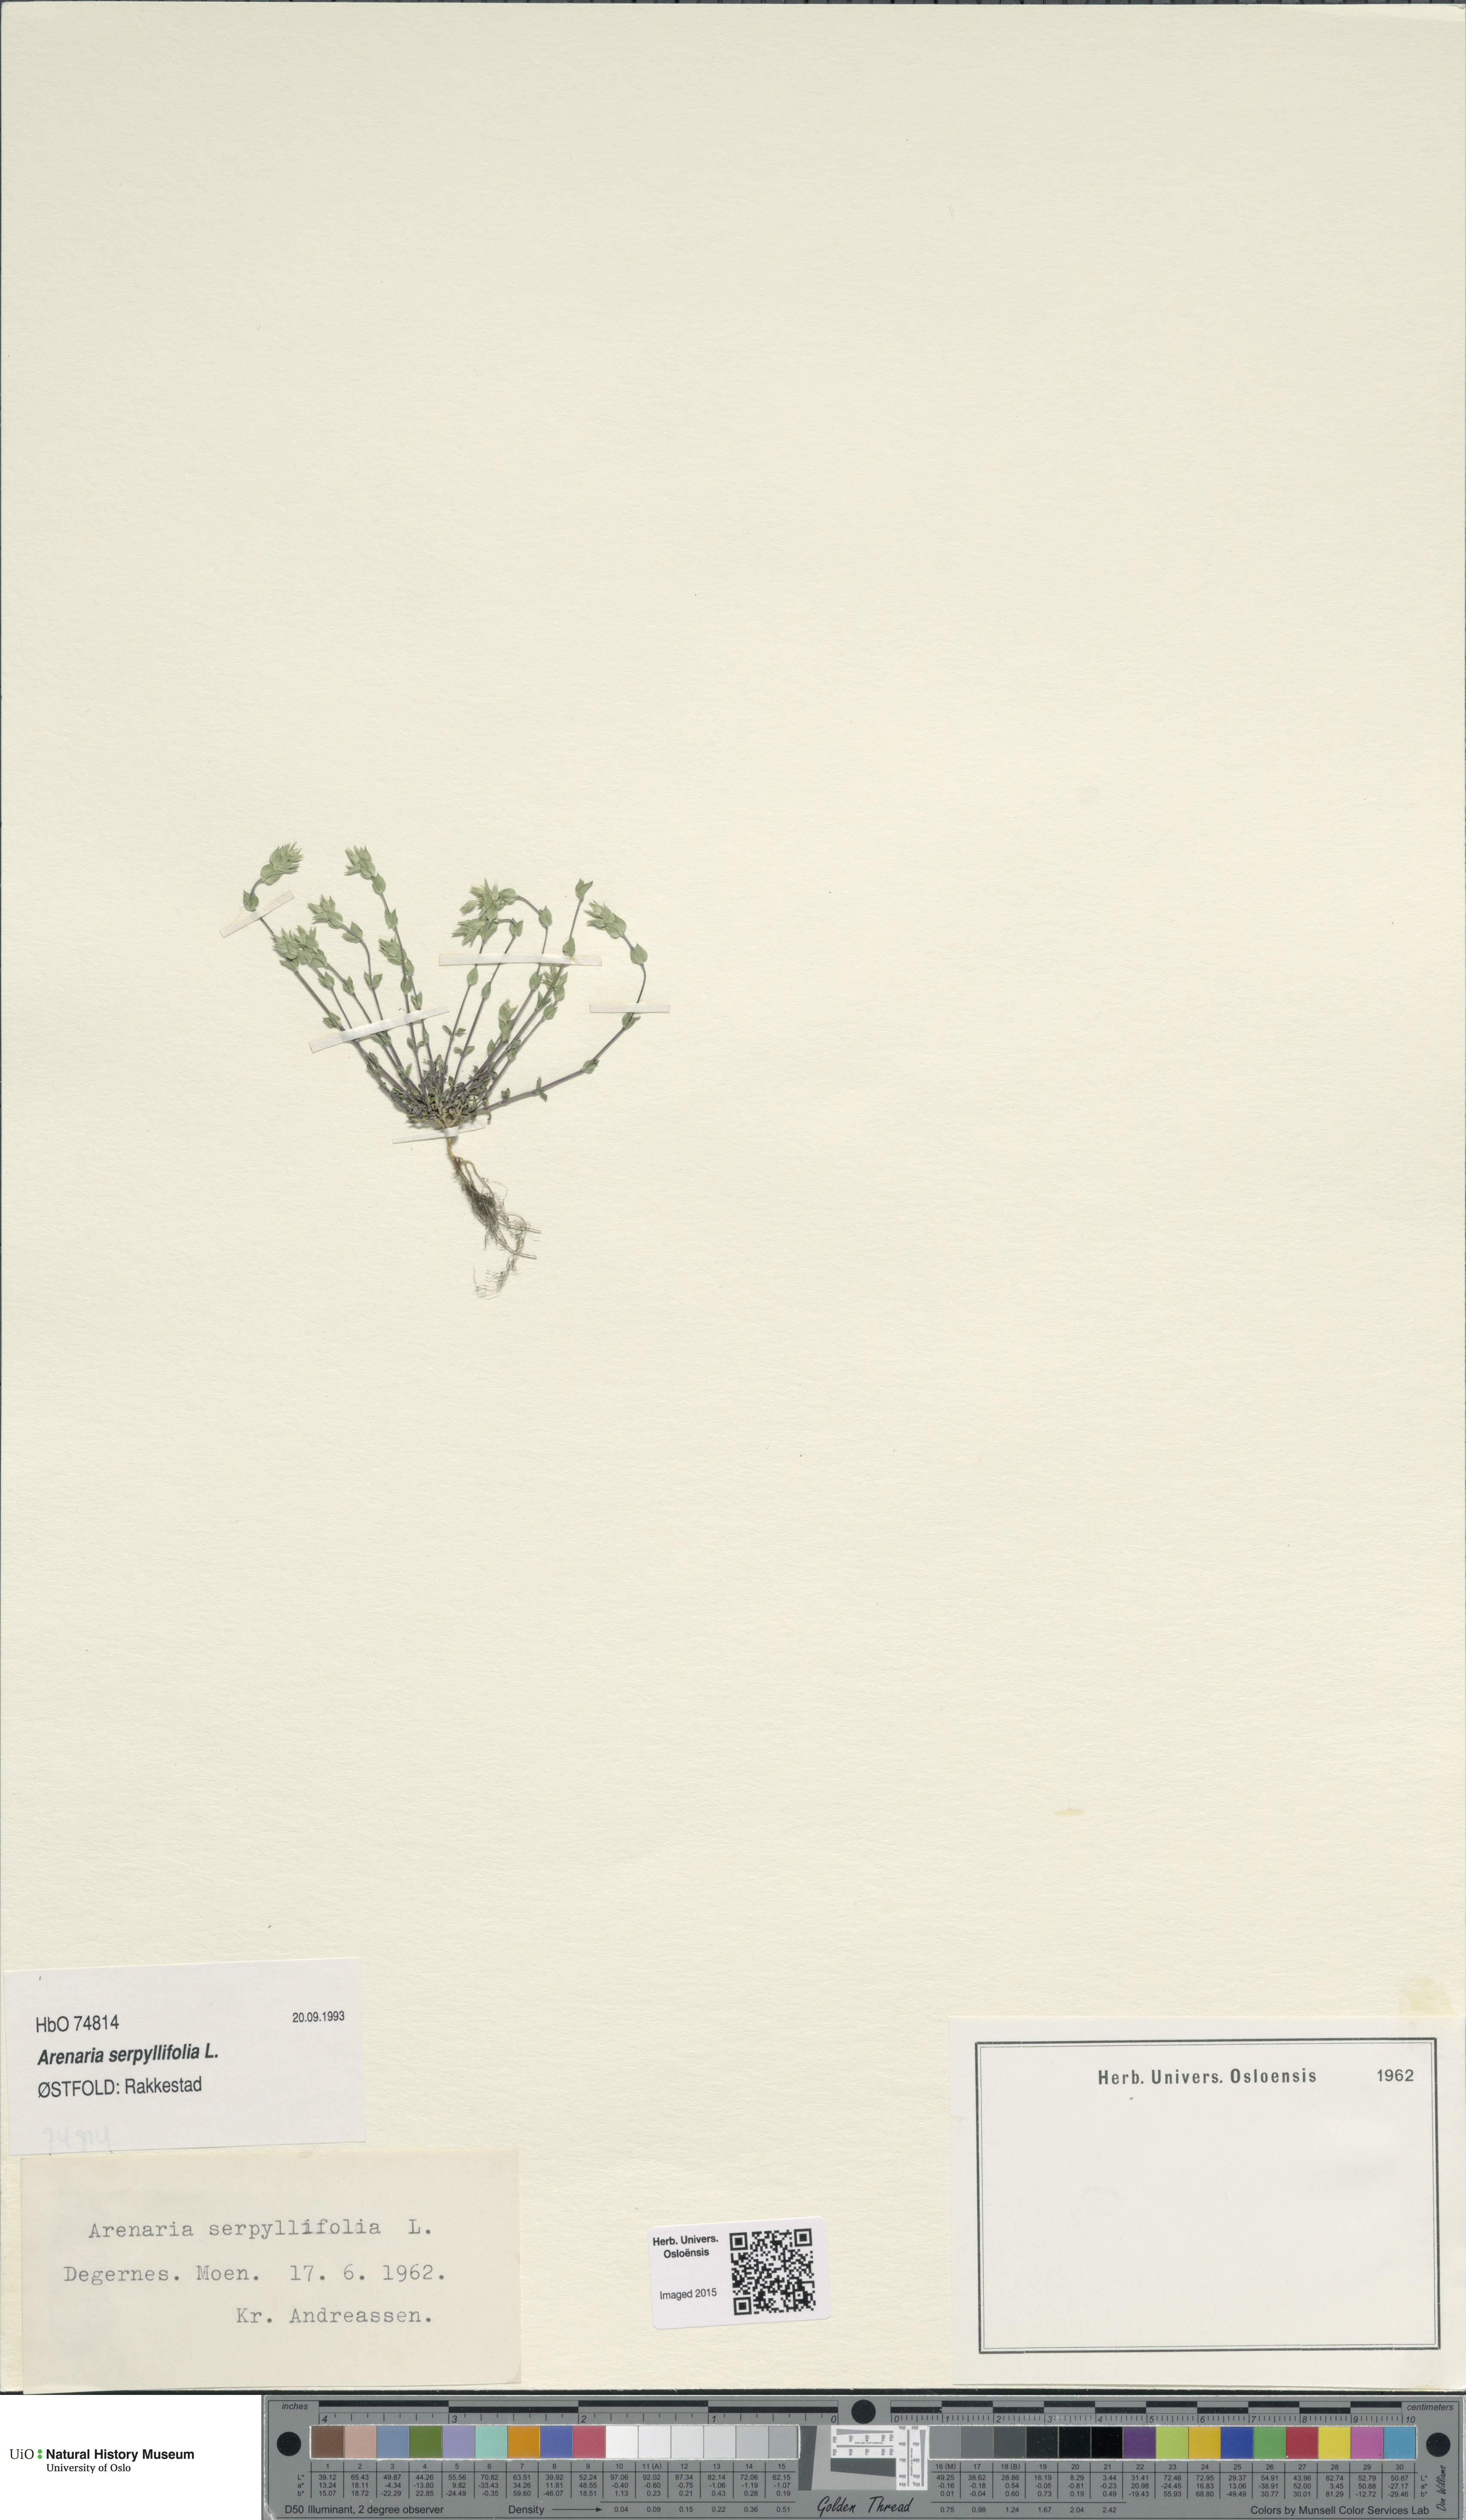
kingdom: Plantae
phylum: Tracheophyta
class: Magnoliopsida
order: Caryophyllales
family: Caryophyllaceae
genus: Arenaria
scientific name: Arenaria serpyllifolia
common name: Thyme-leaved sandwort
